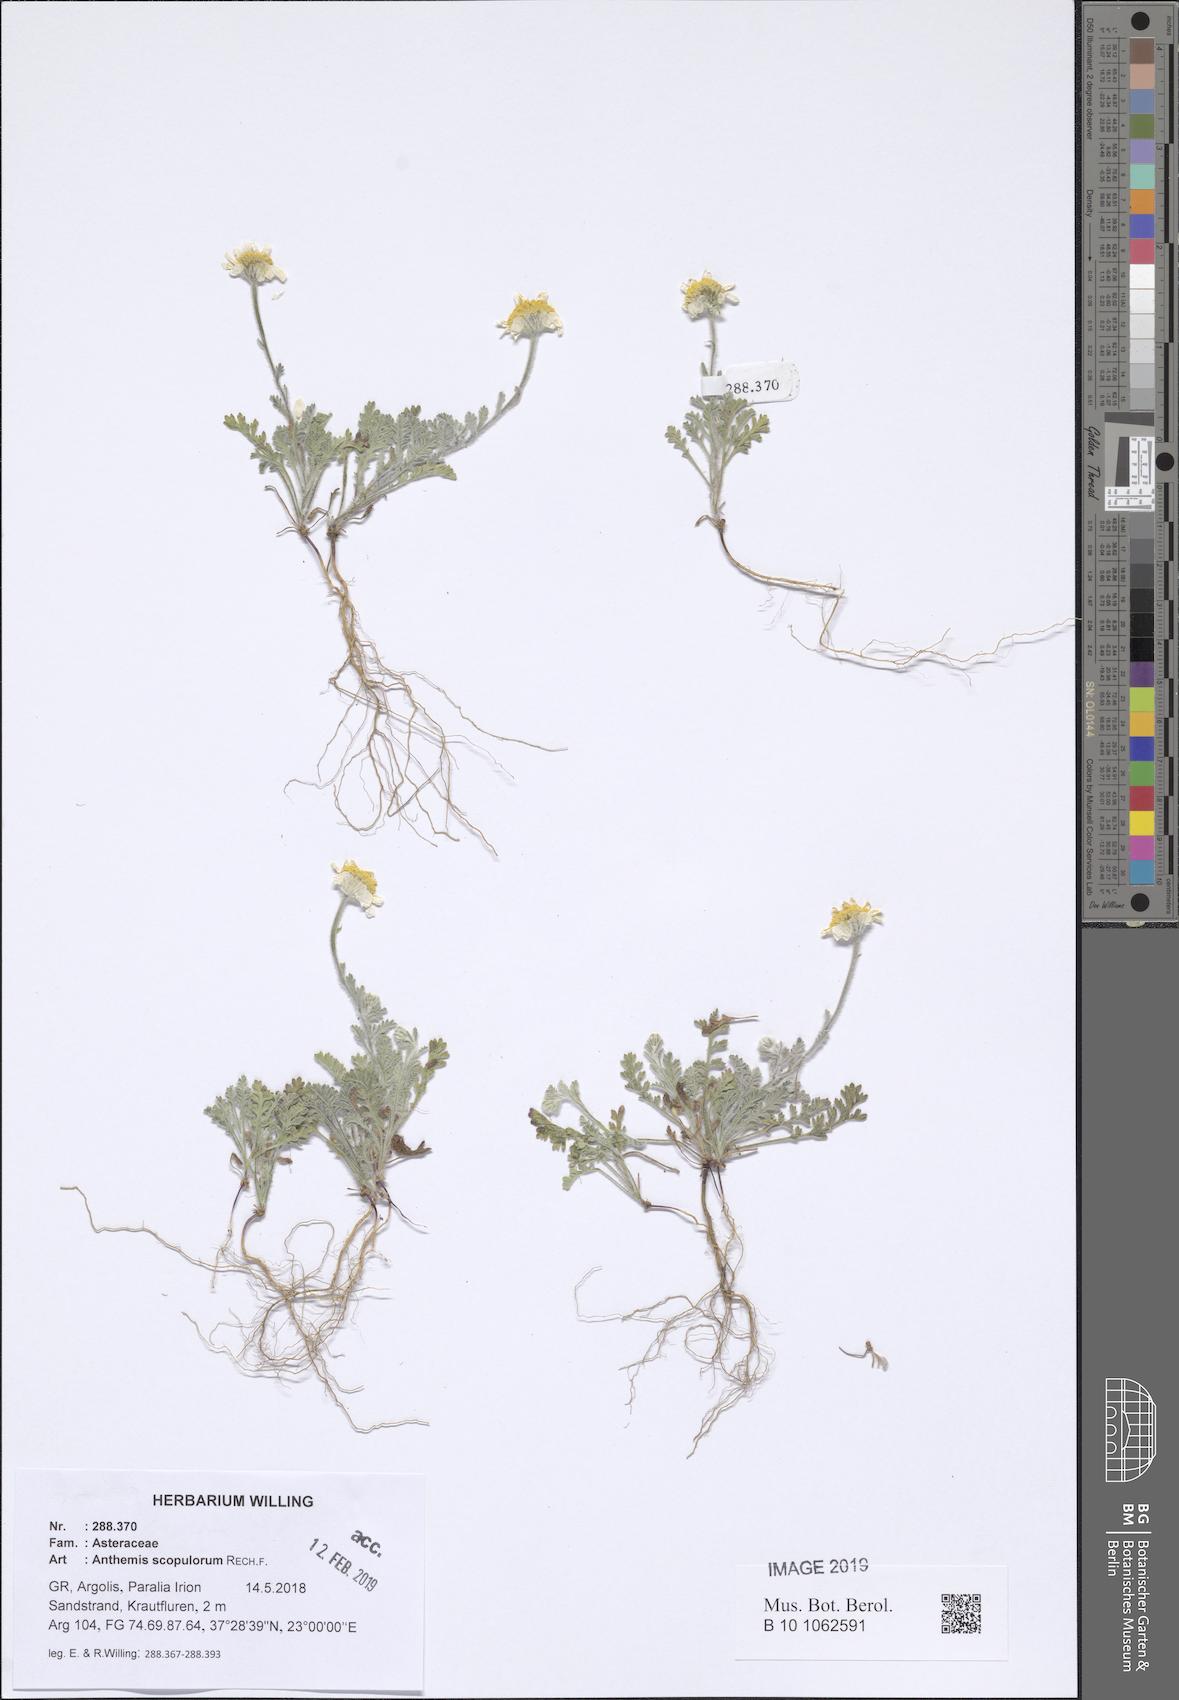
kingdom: Plantae
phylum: Tracheophyta
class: Magnoliopsida
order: Asterales
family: Asteraceae
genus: Anthemis
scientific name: Anthemis scopulorum
